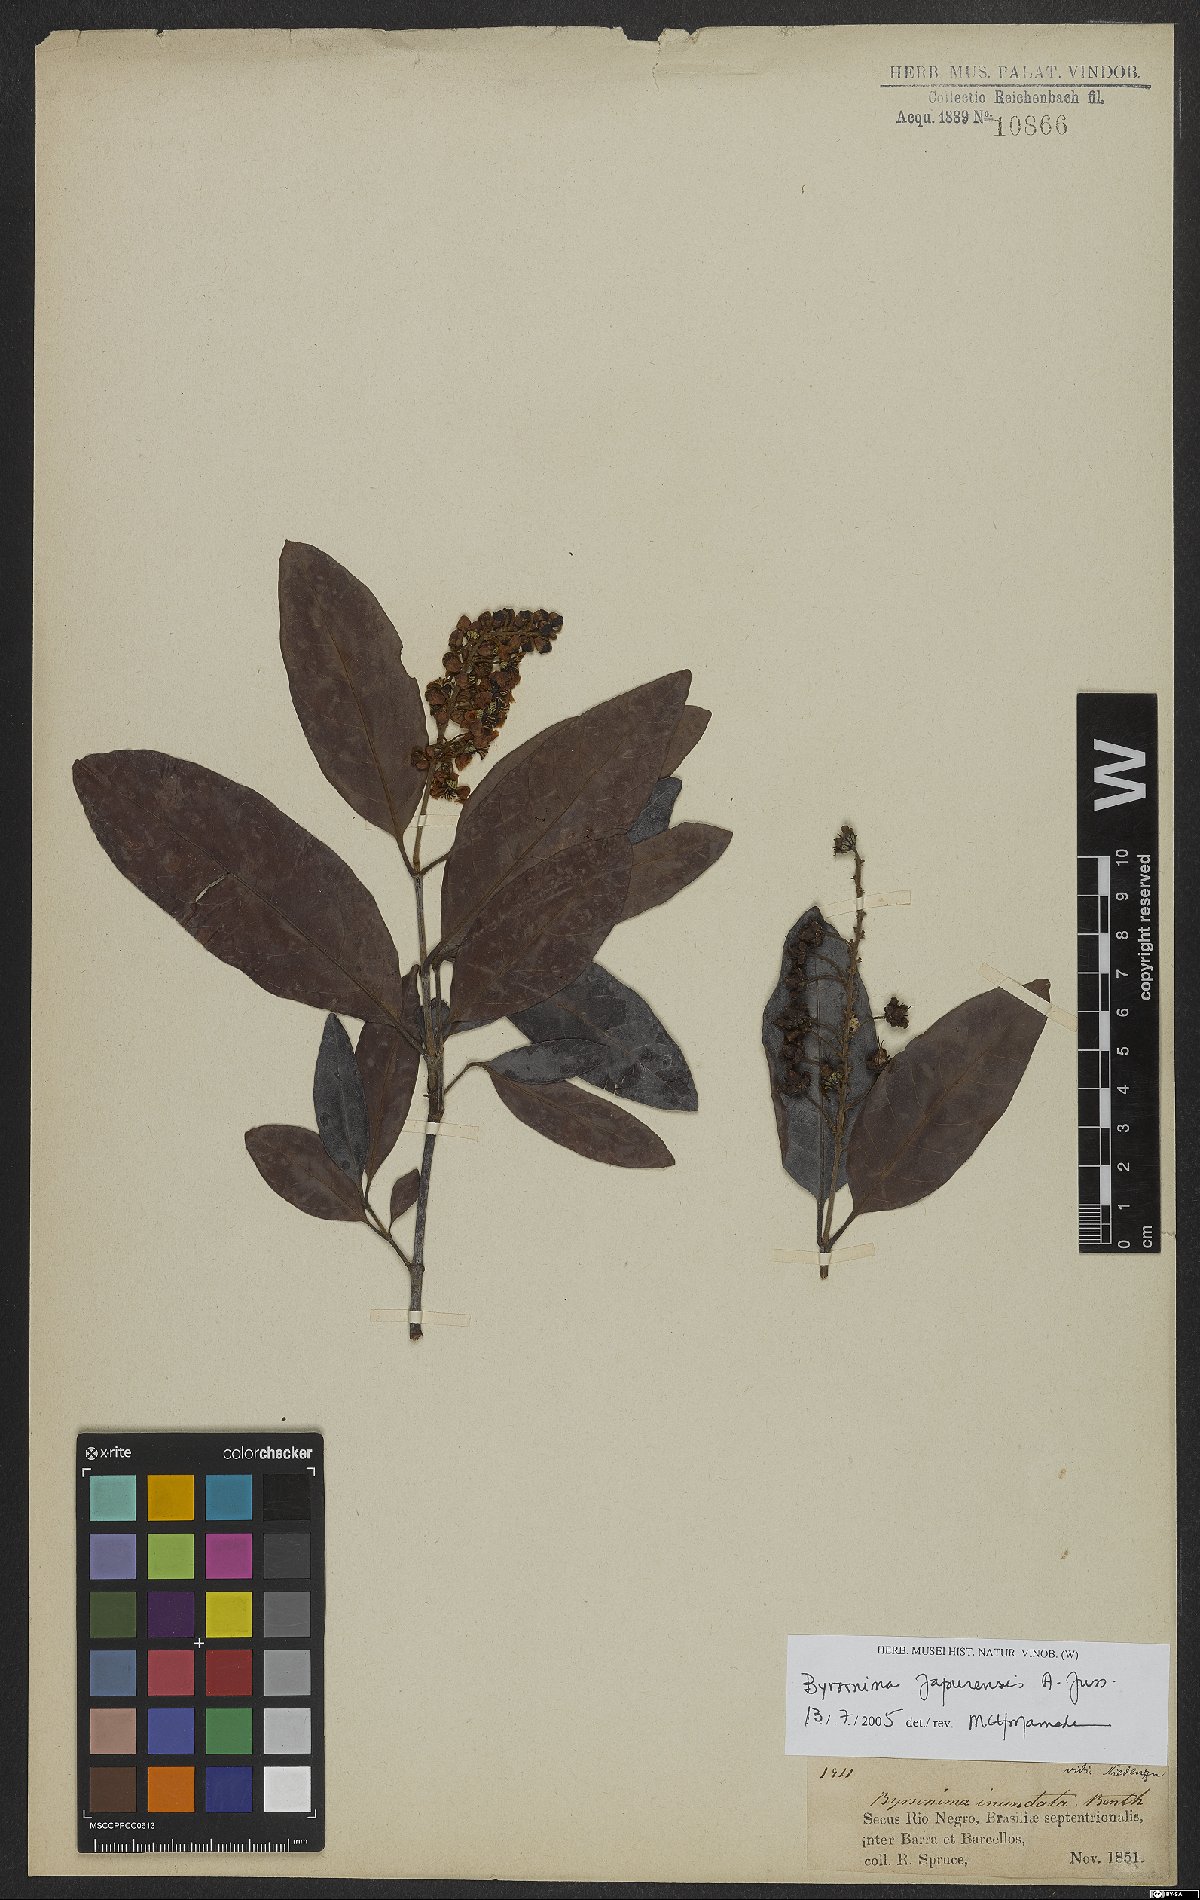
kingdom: Plantae
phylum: Tracheophyta
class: Magnoliopsida
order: Malpighiales
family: Malpighiaceae
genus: Byrsonima
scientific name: Byrsonima japurensis
